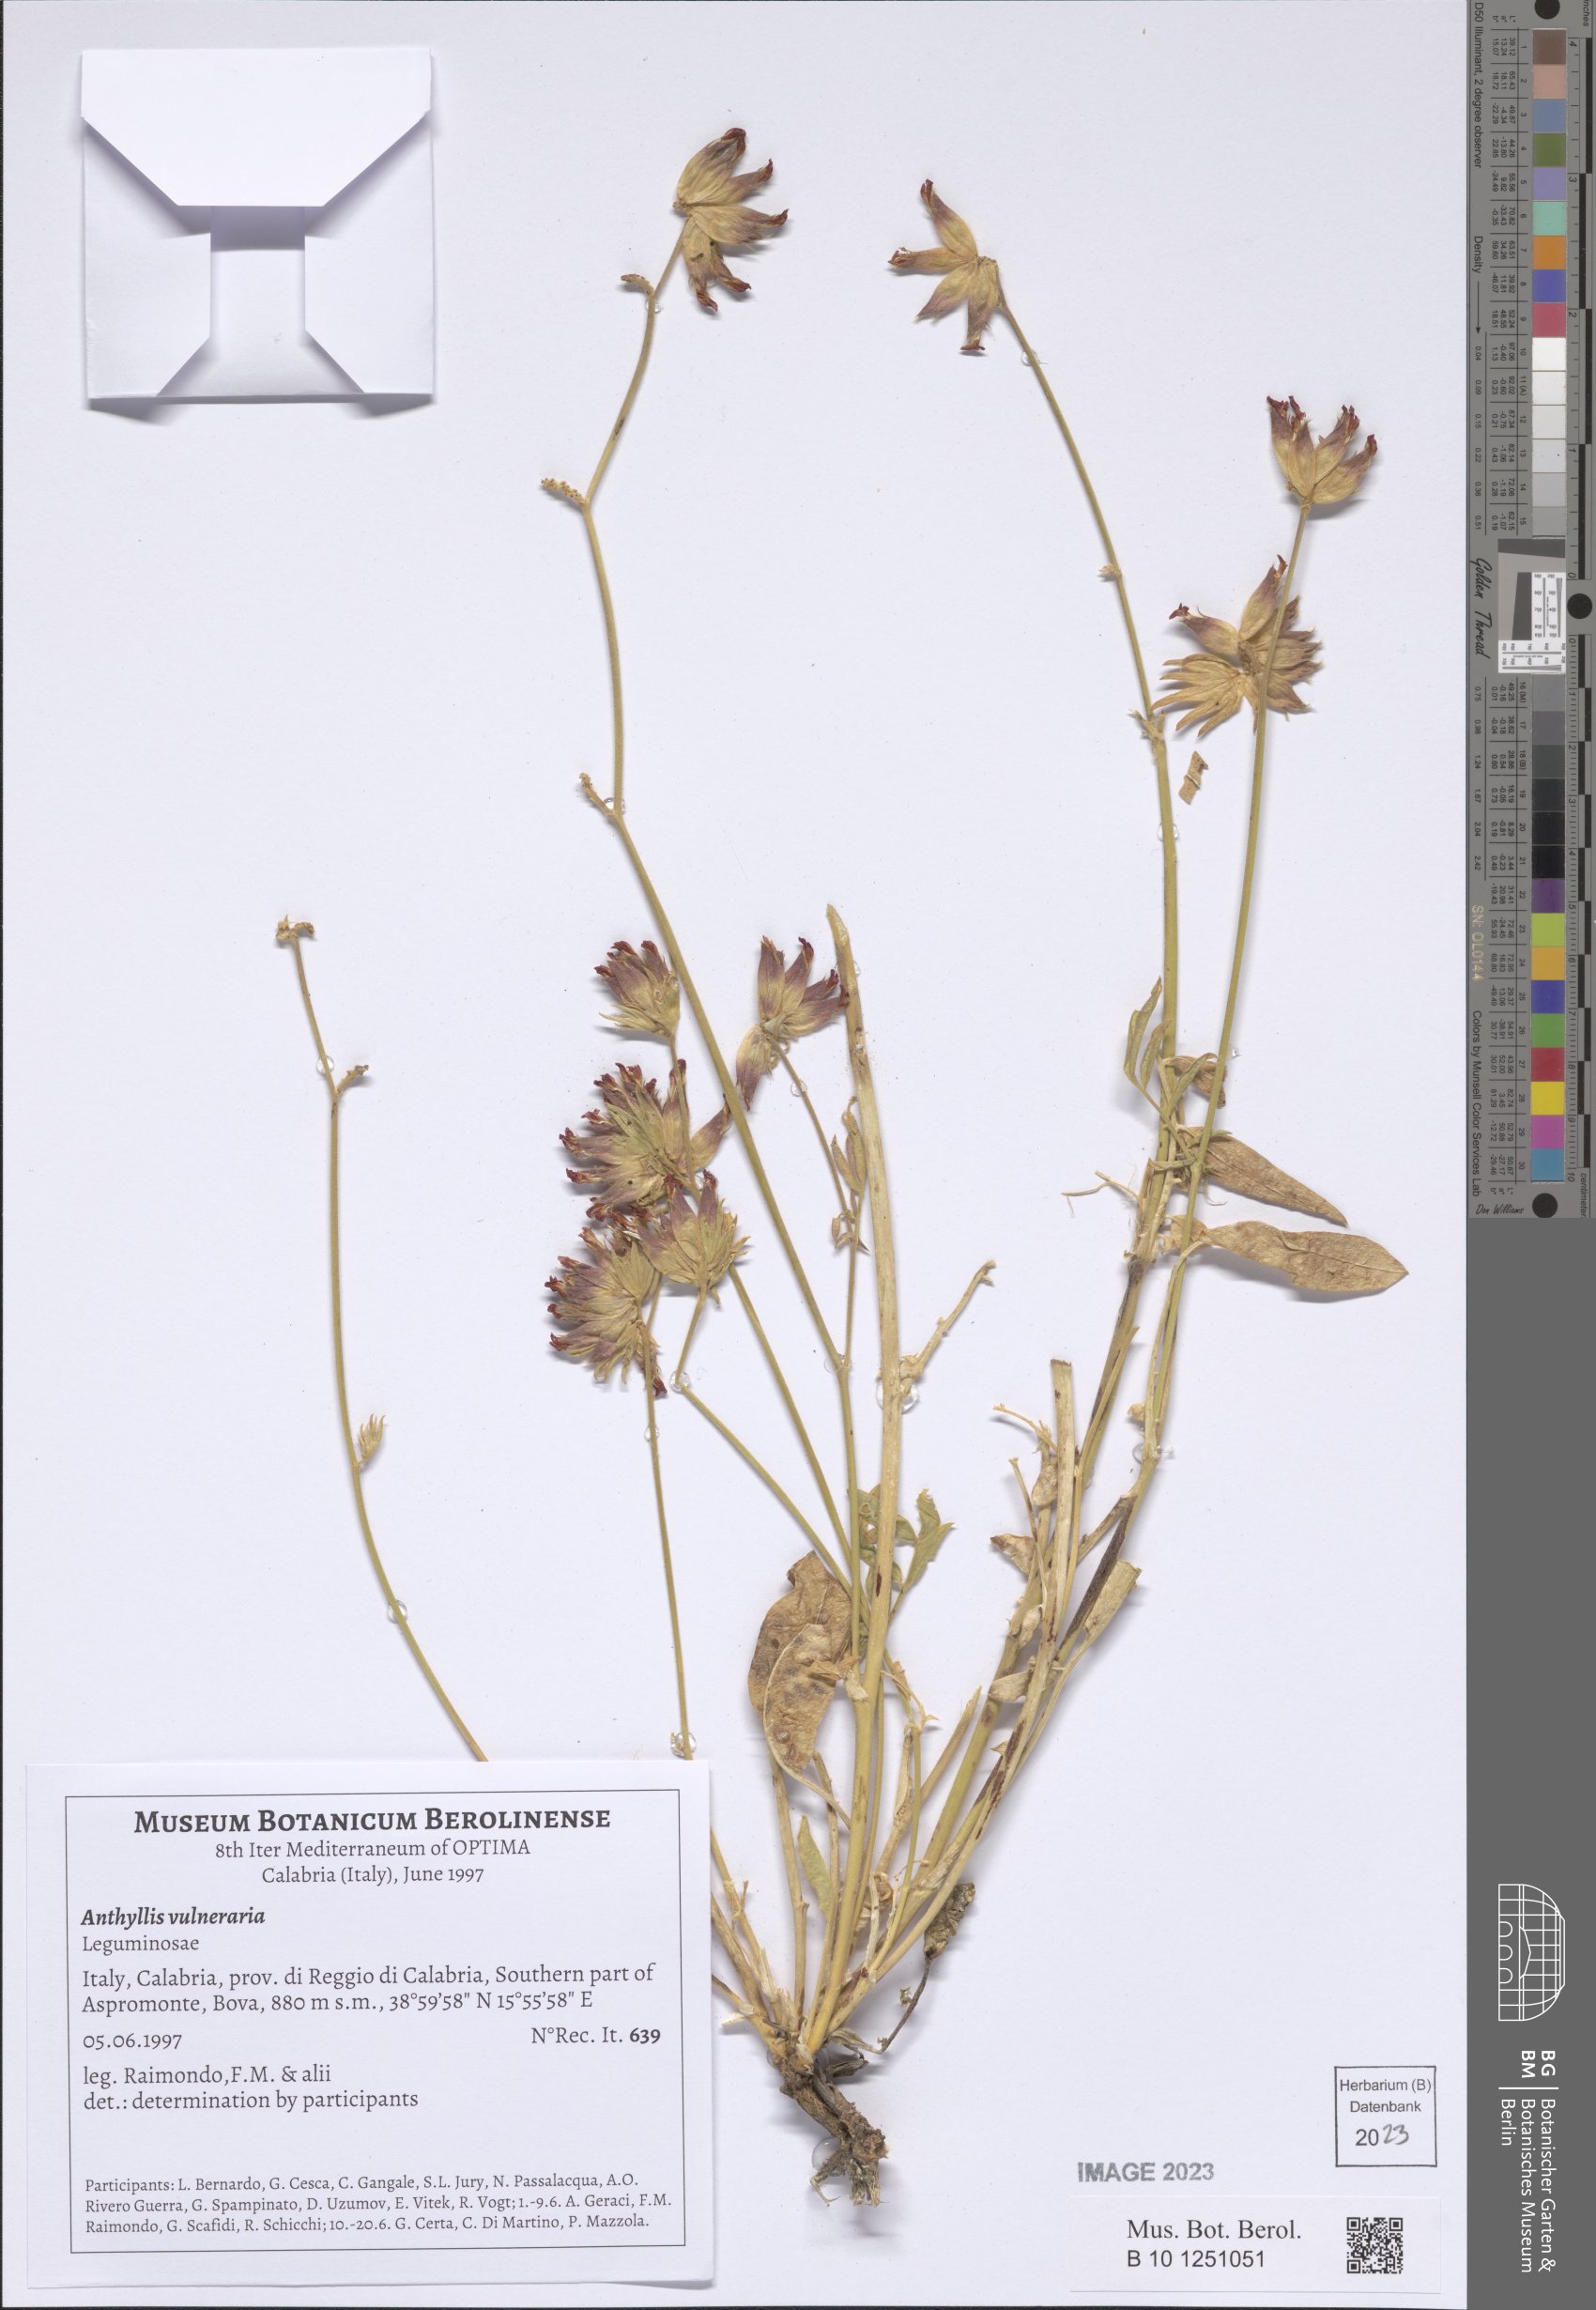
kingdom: Plantae
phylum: Tracheophyta
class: Magnoliopsida
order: Fabales
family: Fabaceae
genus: Anthyllis
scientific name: Anthyllis vulneraria
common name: Kidney vetch
